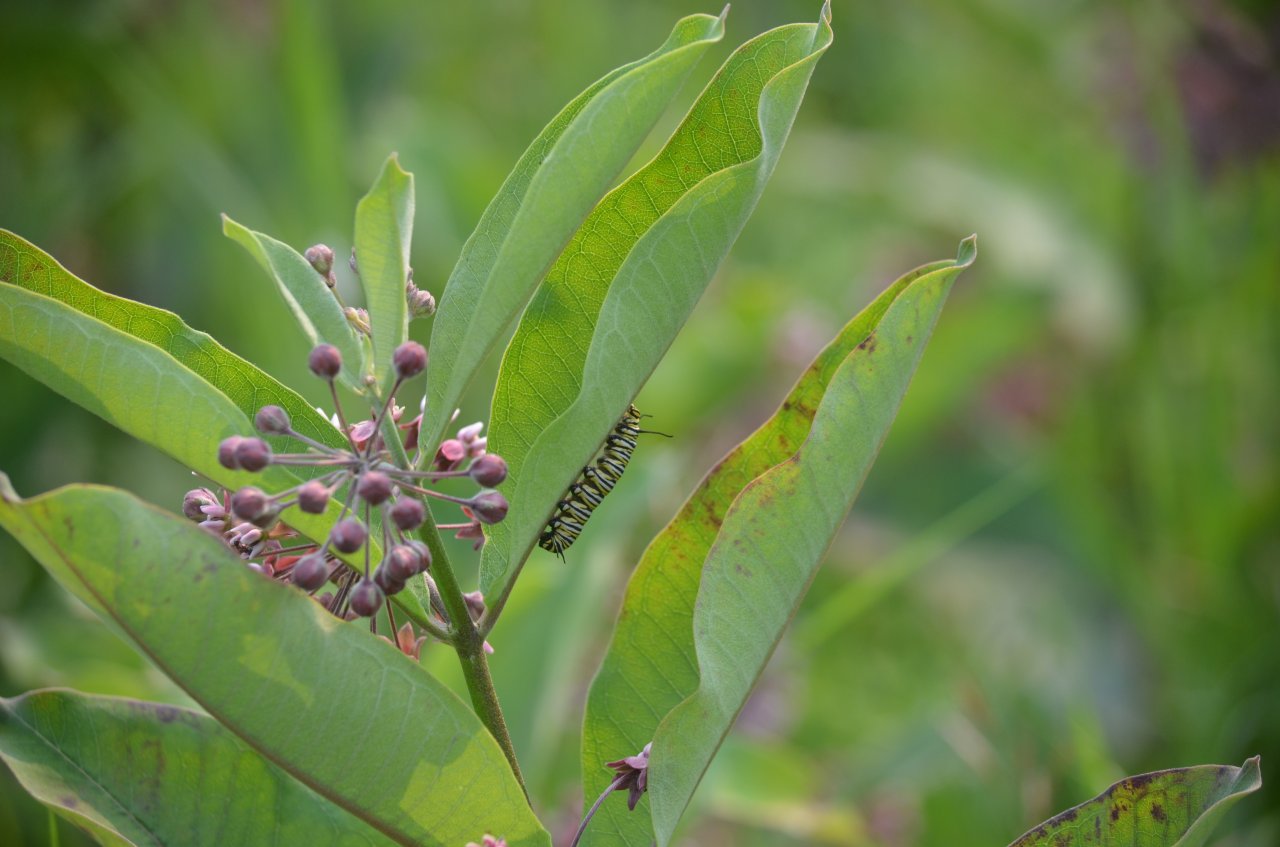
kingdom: Animalia
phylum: Arthropoda
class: Insecta
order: Lepidoptera
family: Nymphalidae
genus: Danaus
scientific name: Danaus plexippus
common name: Monarch
